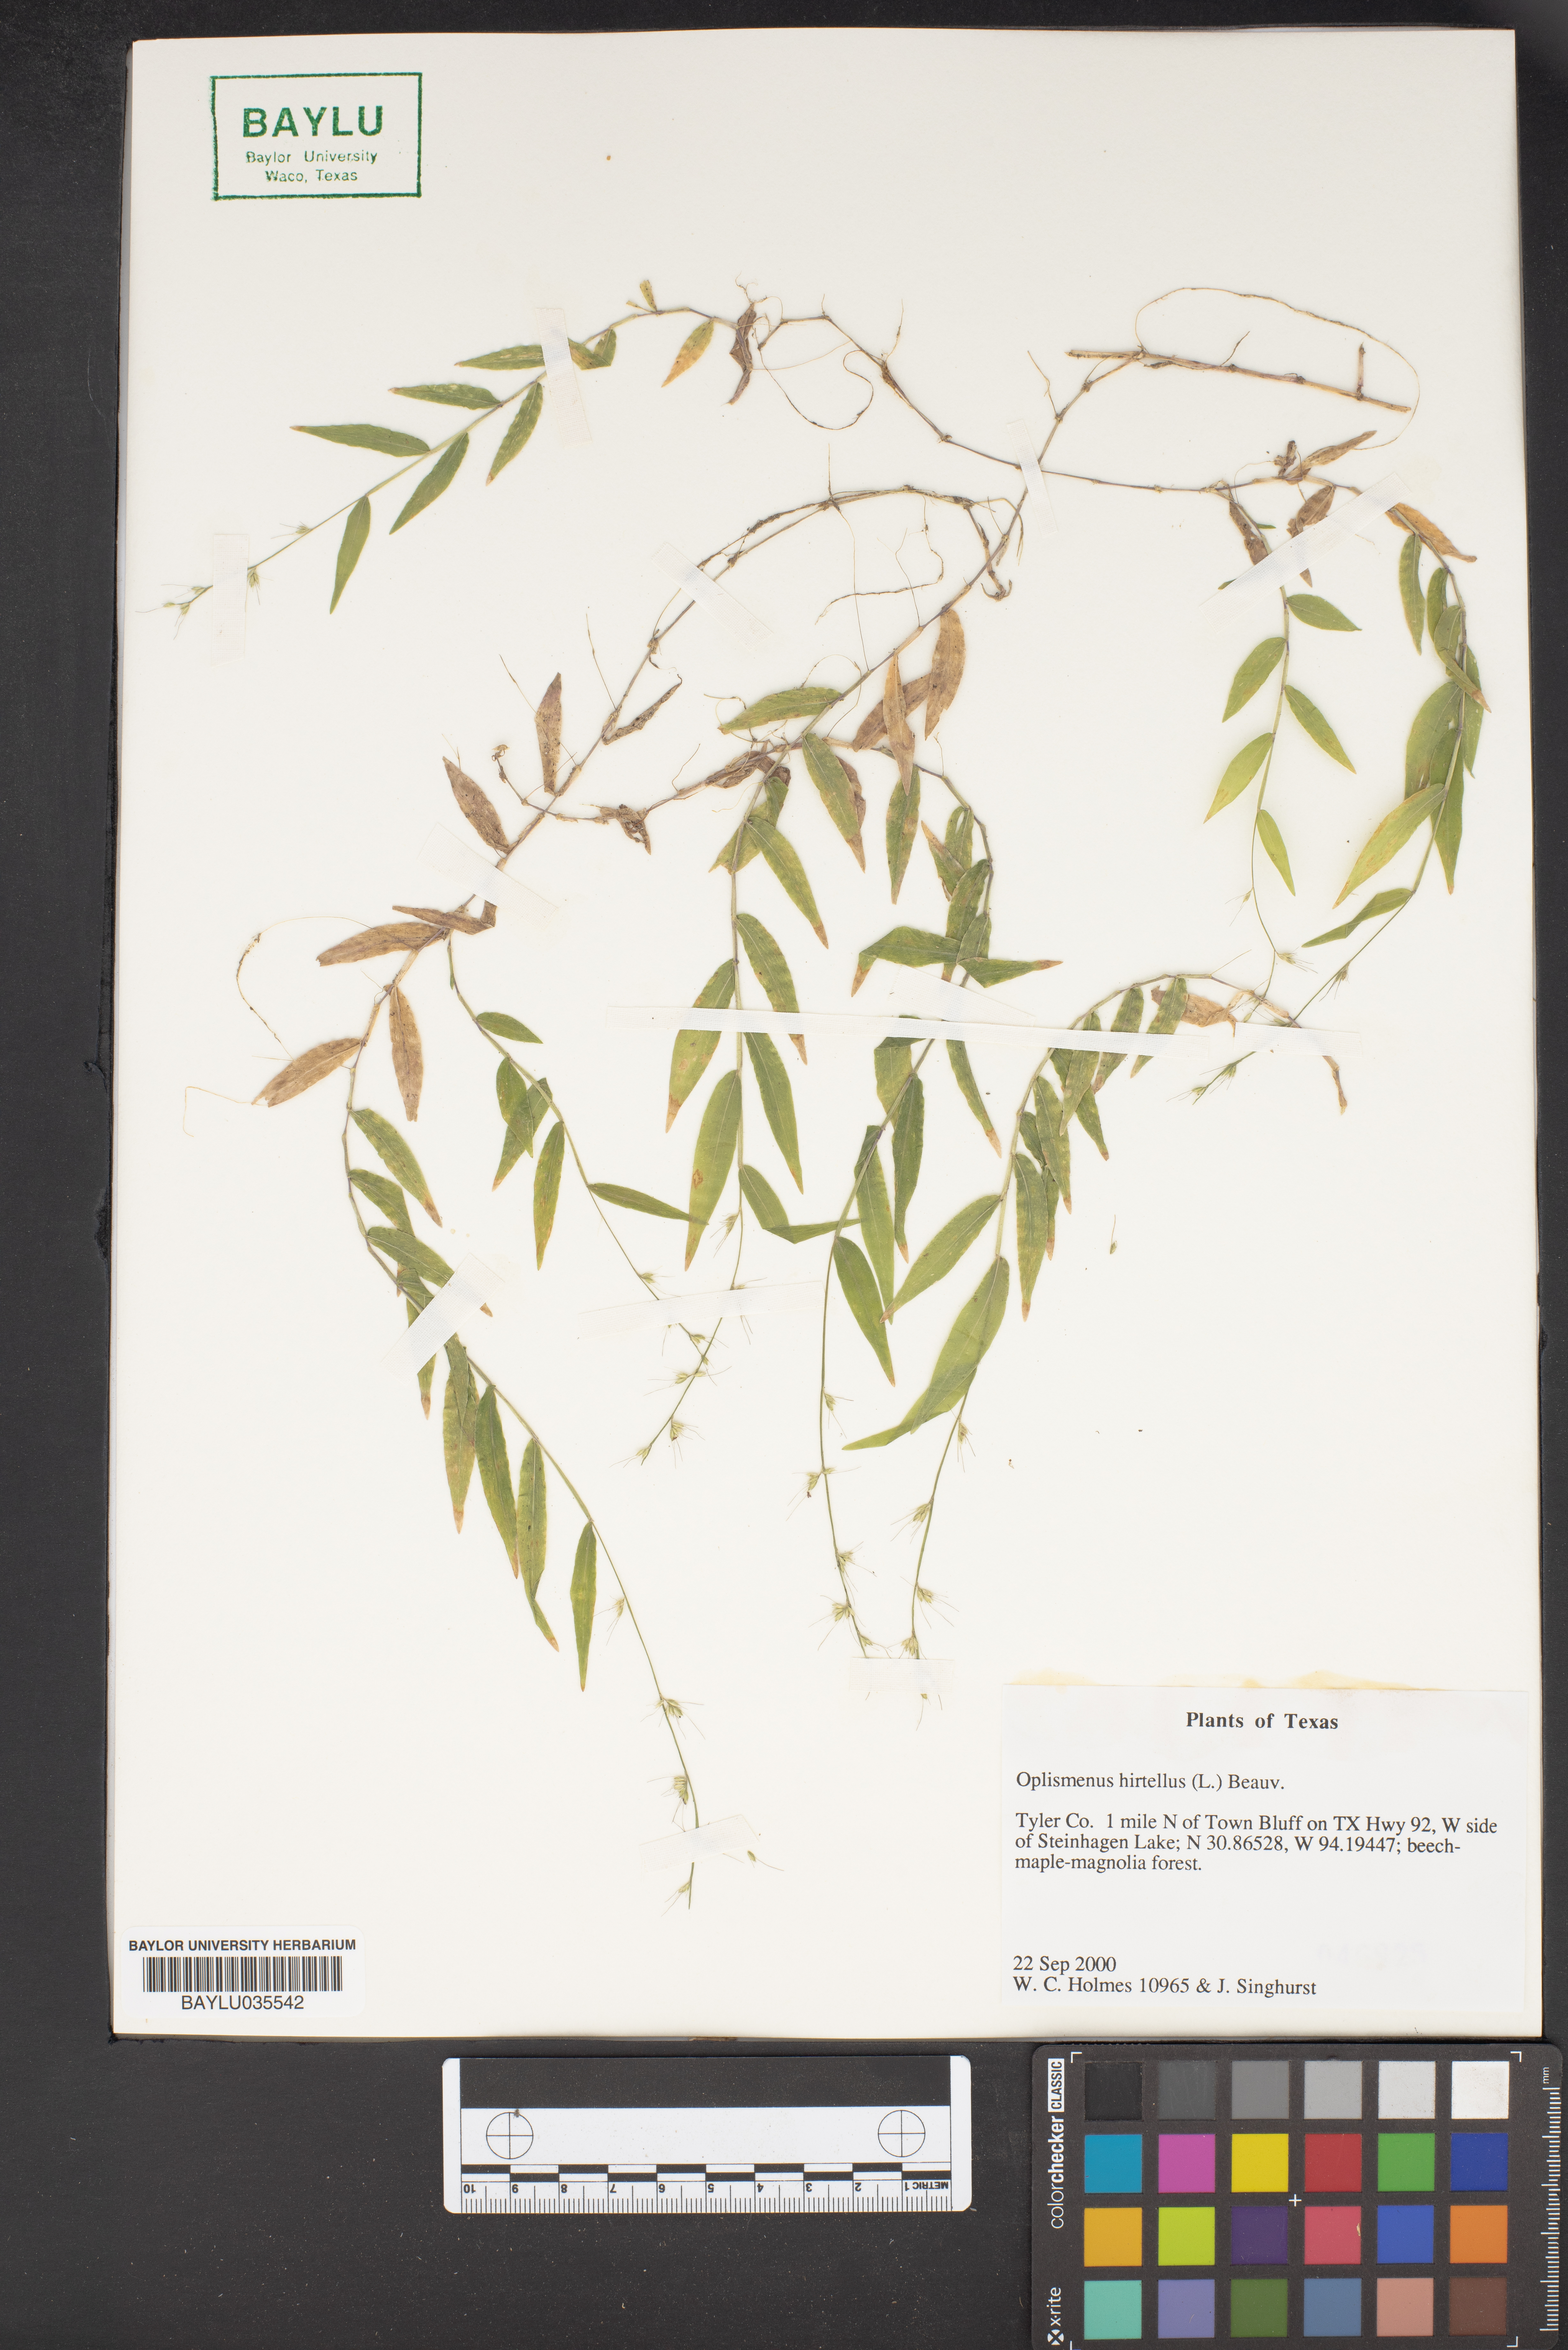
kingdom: Plantae
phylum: Tracheophyta
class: Liliopsida
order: Poales
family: Poaceae
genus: Oplismenus
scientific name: Oplismenus hirtellus
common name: Basketgrass
